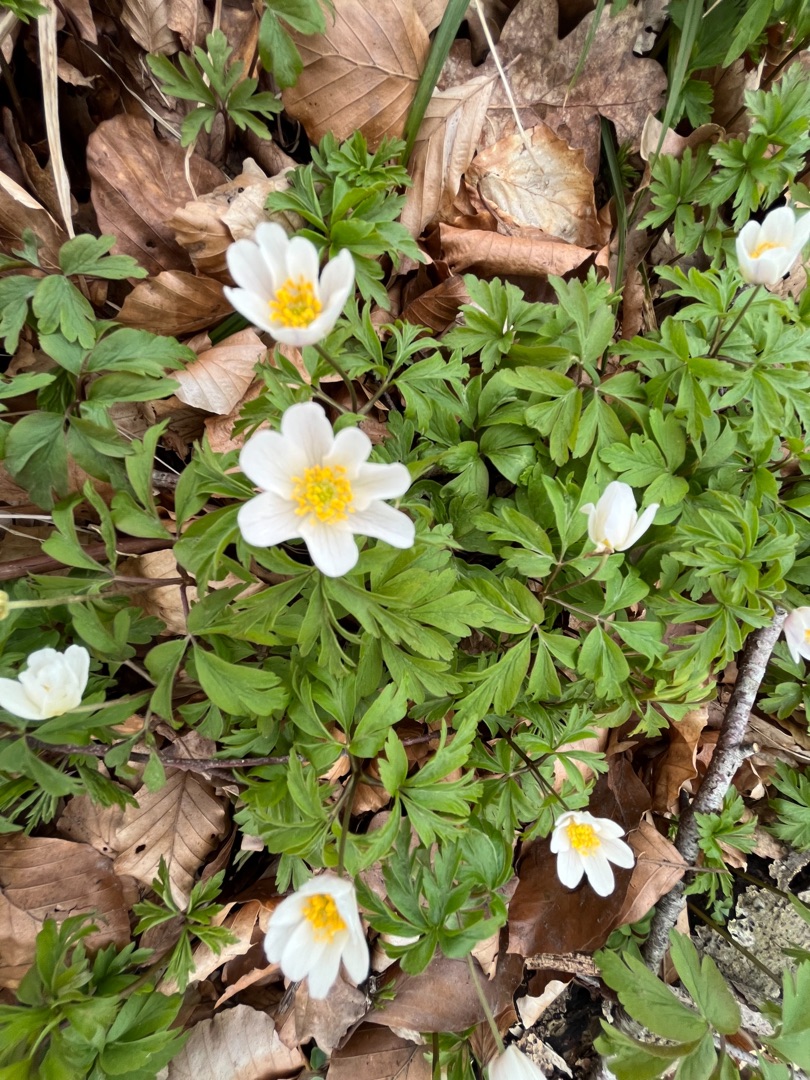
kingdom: Plantae
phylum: Tracheophyta
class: Magnoliopsida
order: Ranunculales
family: Ranunculaceae
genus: Anemone
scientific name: Anemone nemorosa
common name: Hvid anemone
